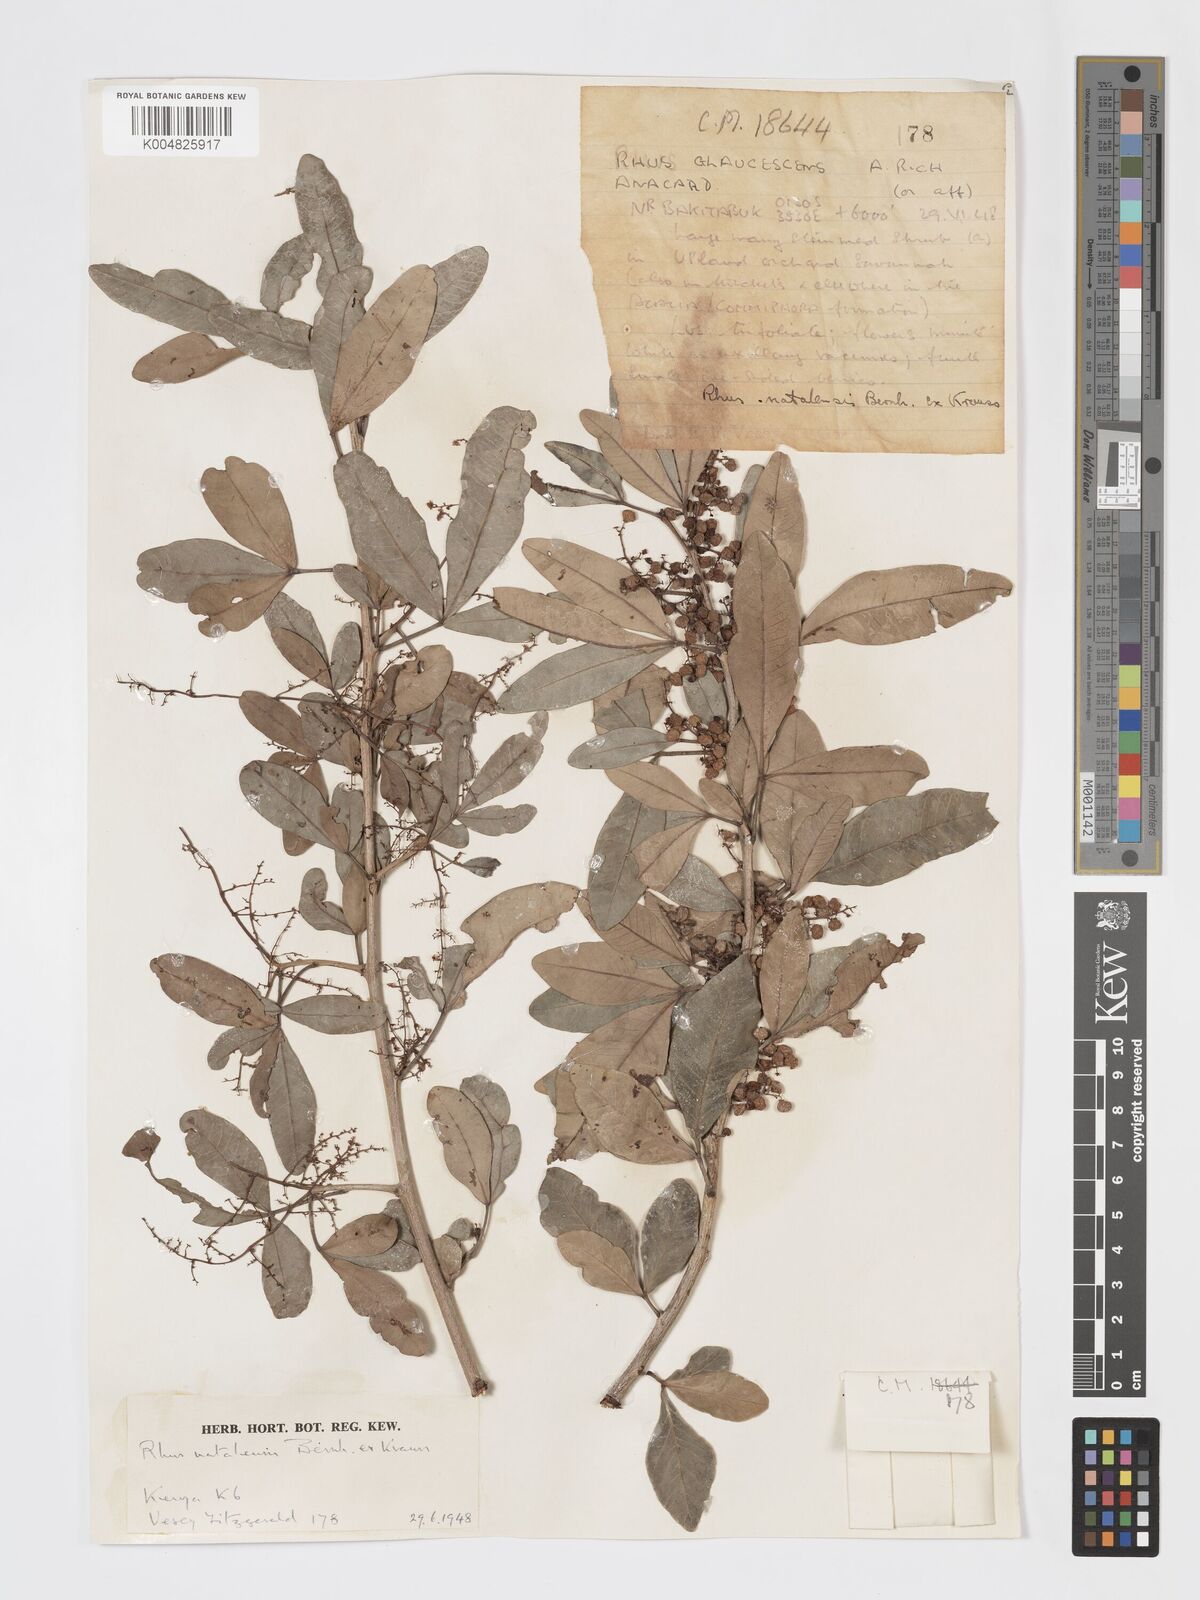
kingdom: Plantae
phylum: Tracheophyta
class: Magnoliopsida
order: Sapindales
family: Anacardiaceae
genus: Searsia
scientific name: Searsia natalensis
